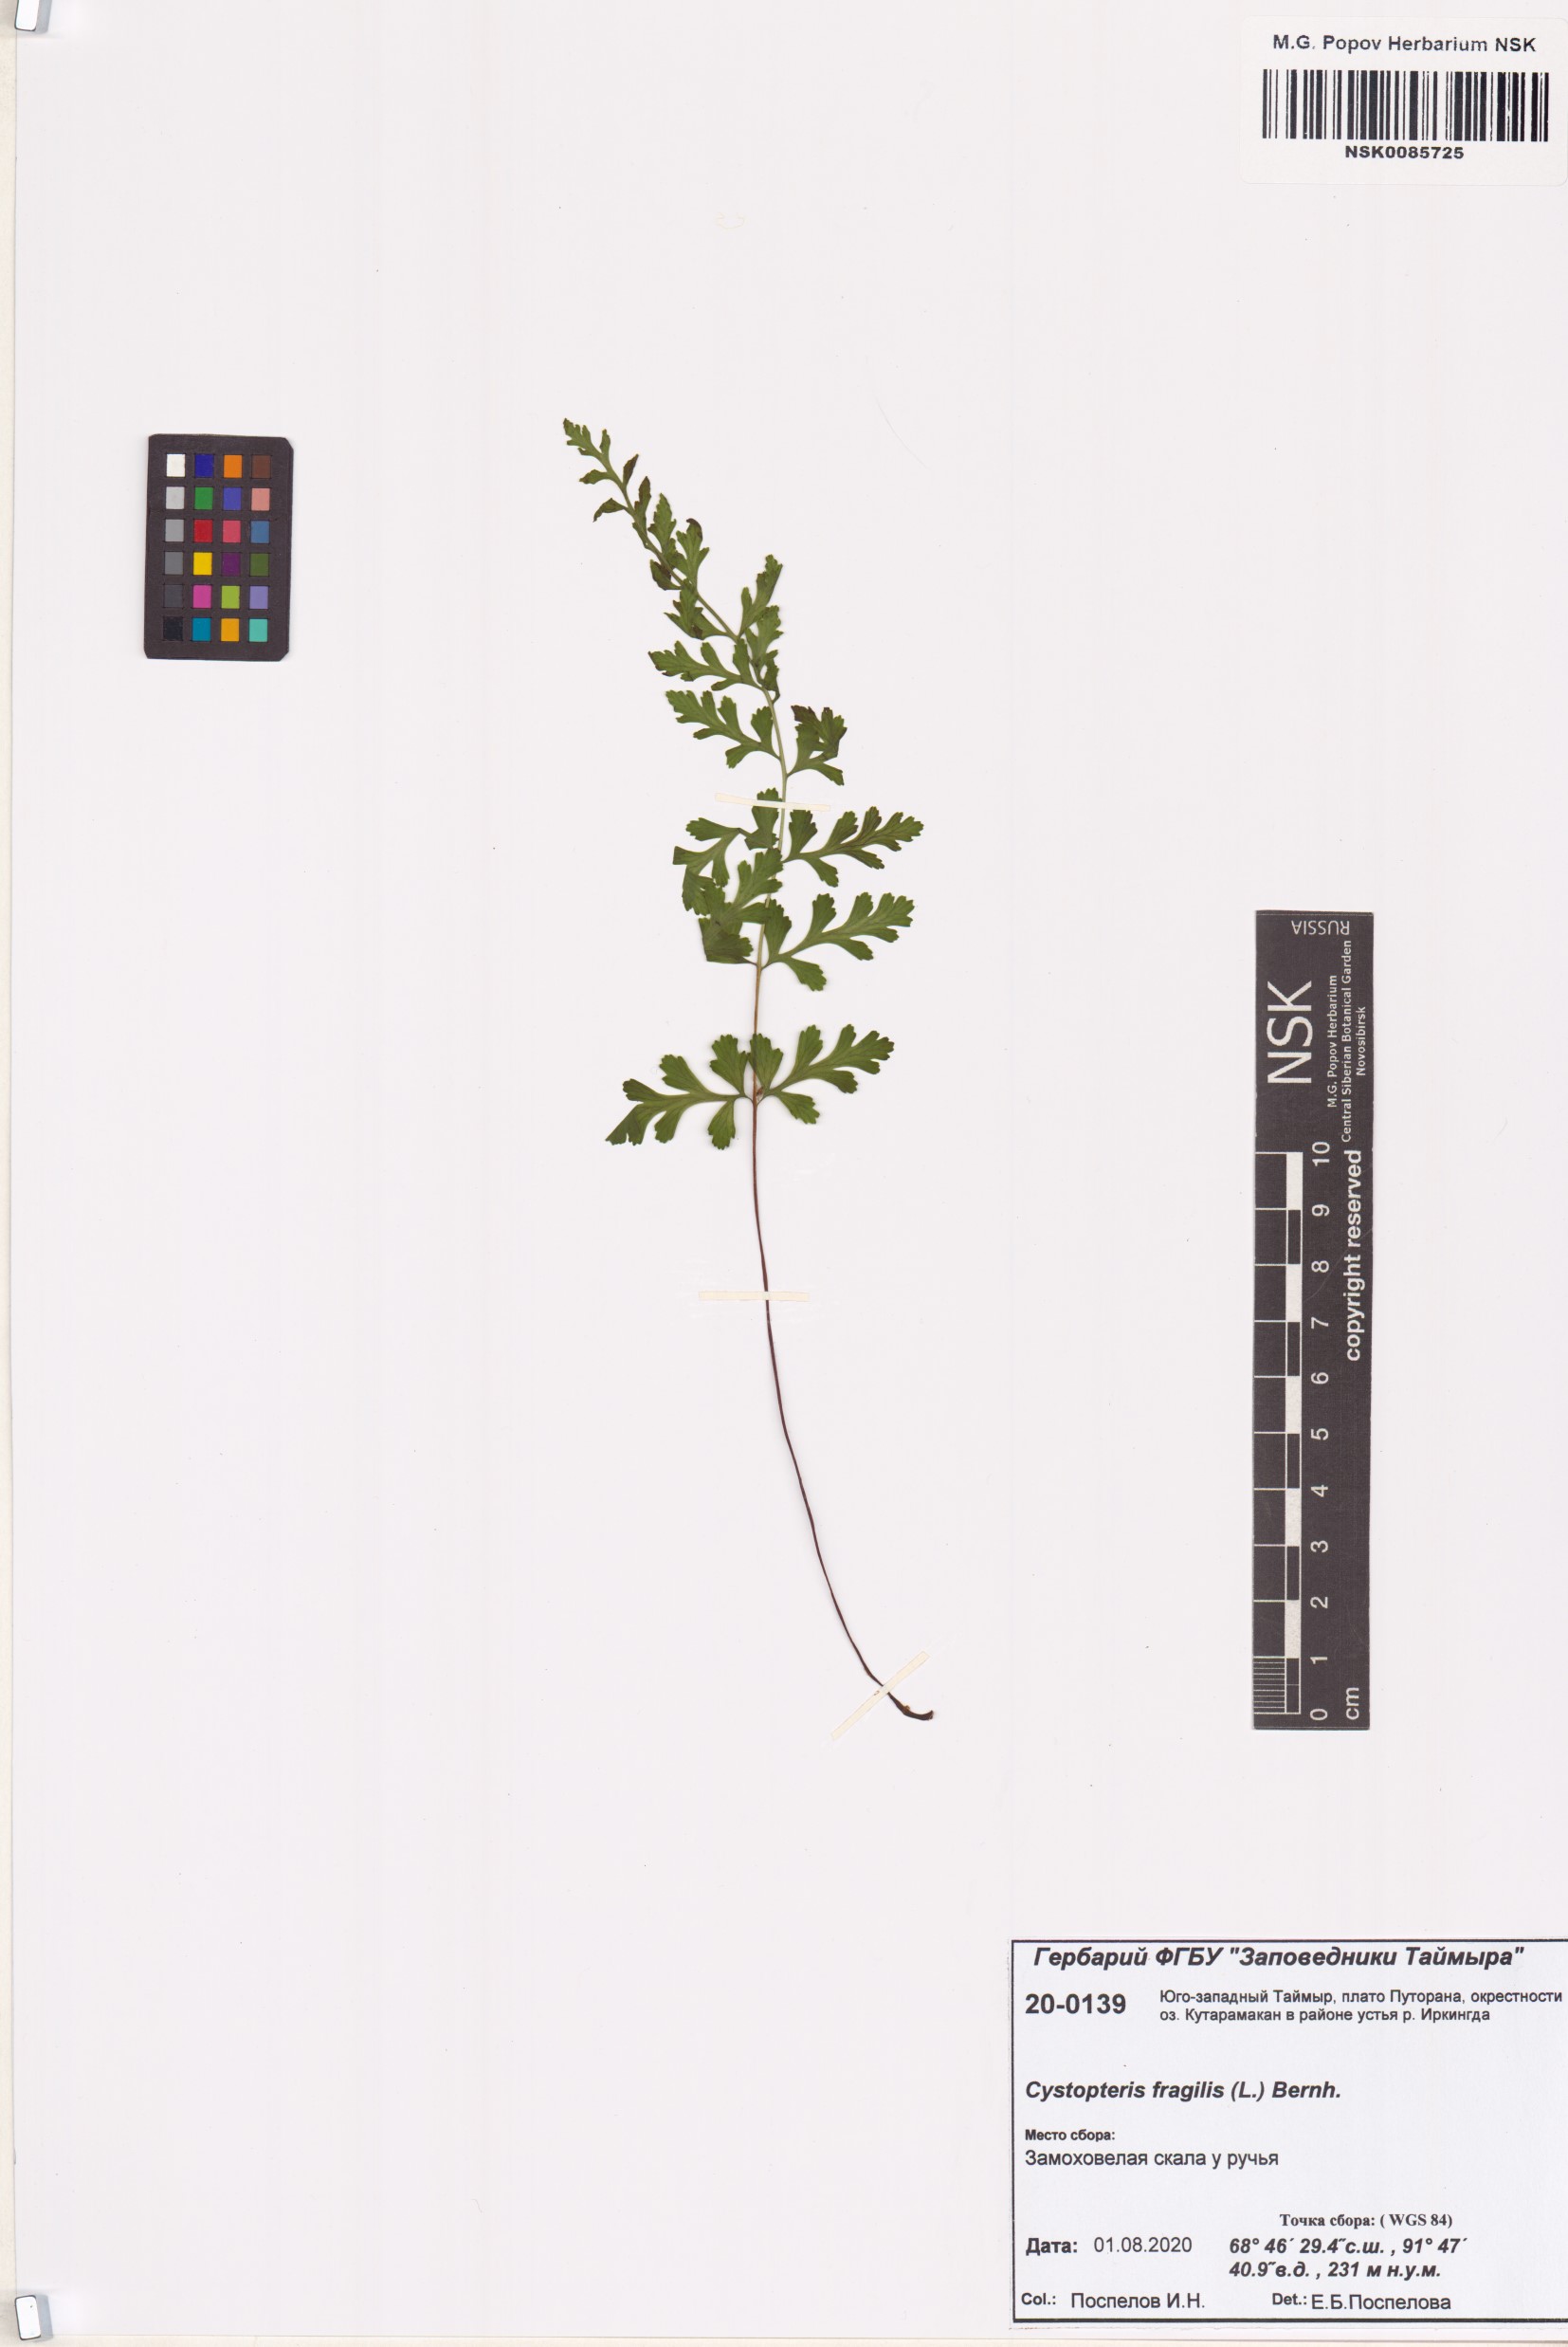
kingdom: Plantae
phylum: Tracheophyta
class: Polypodiopsida
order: Polypodiales
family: Cystopteridaceae
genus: Cystopteris
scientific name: Cystopteris fragilis
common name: Brittle bladder fern
